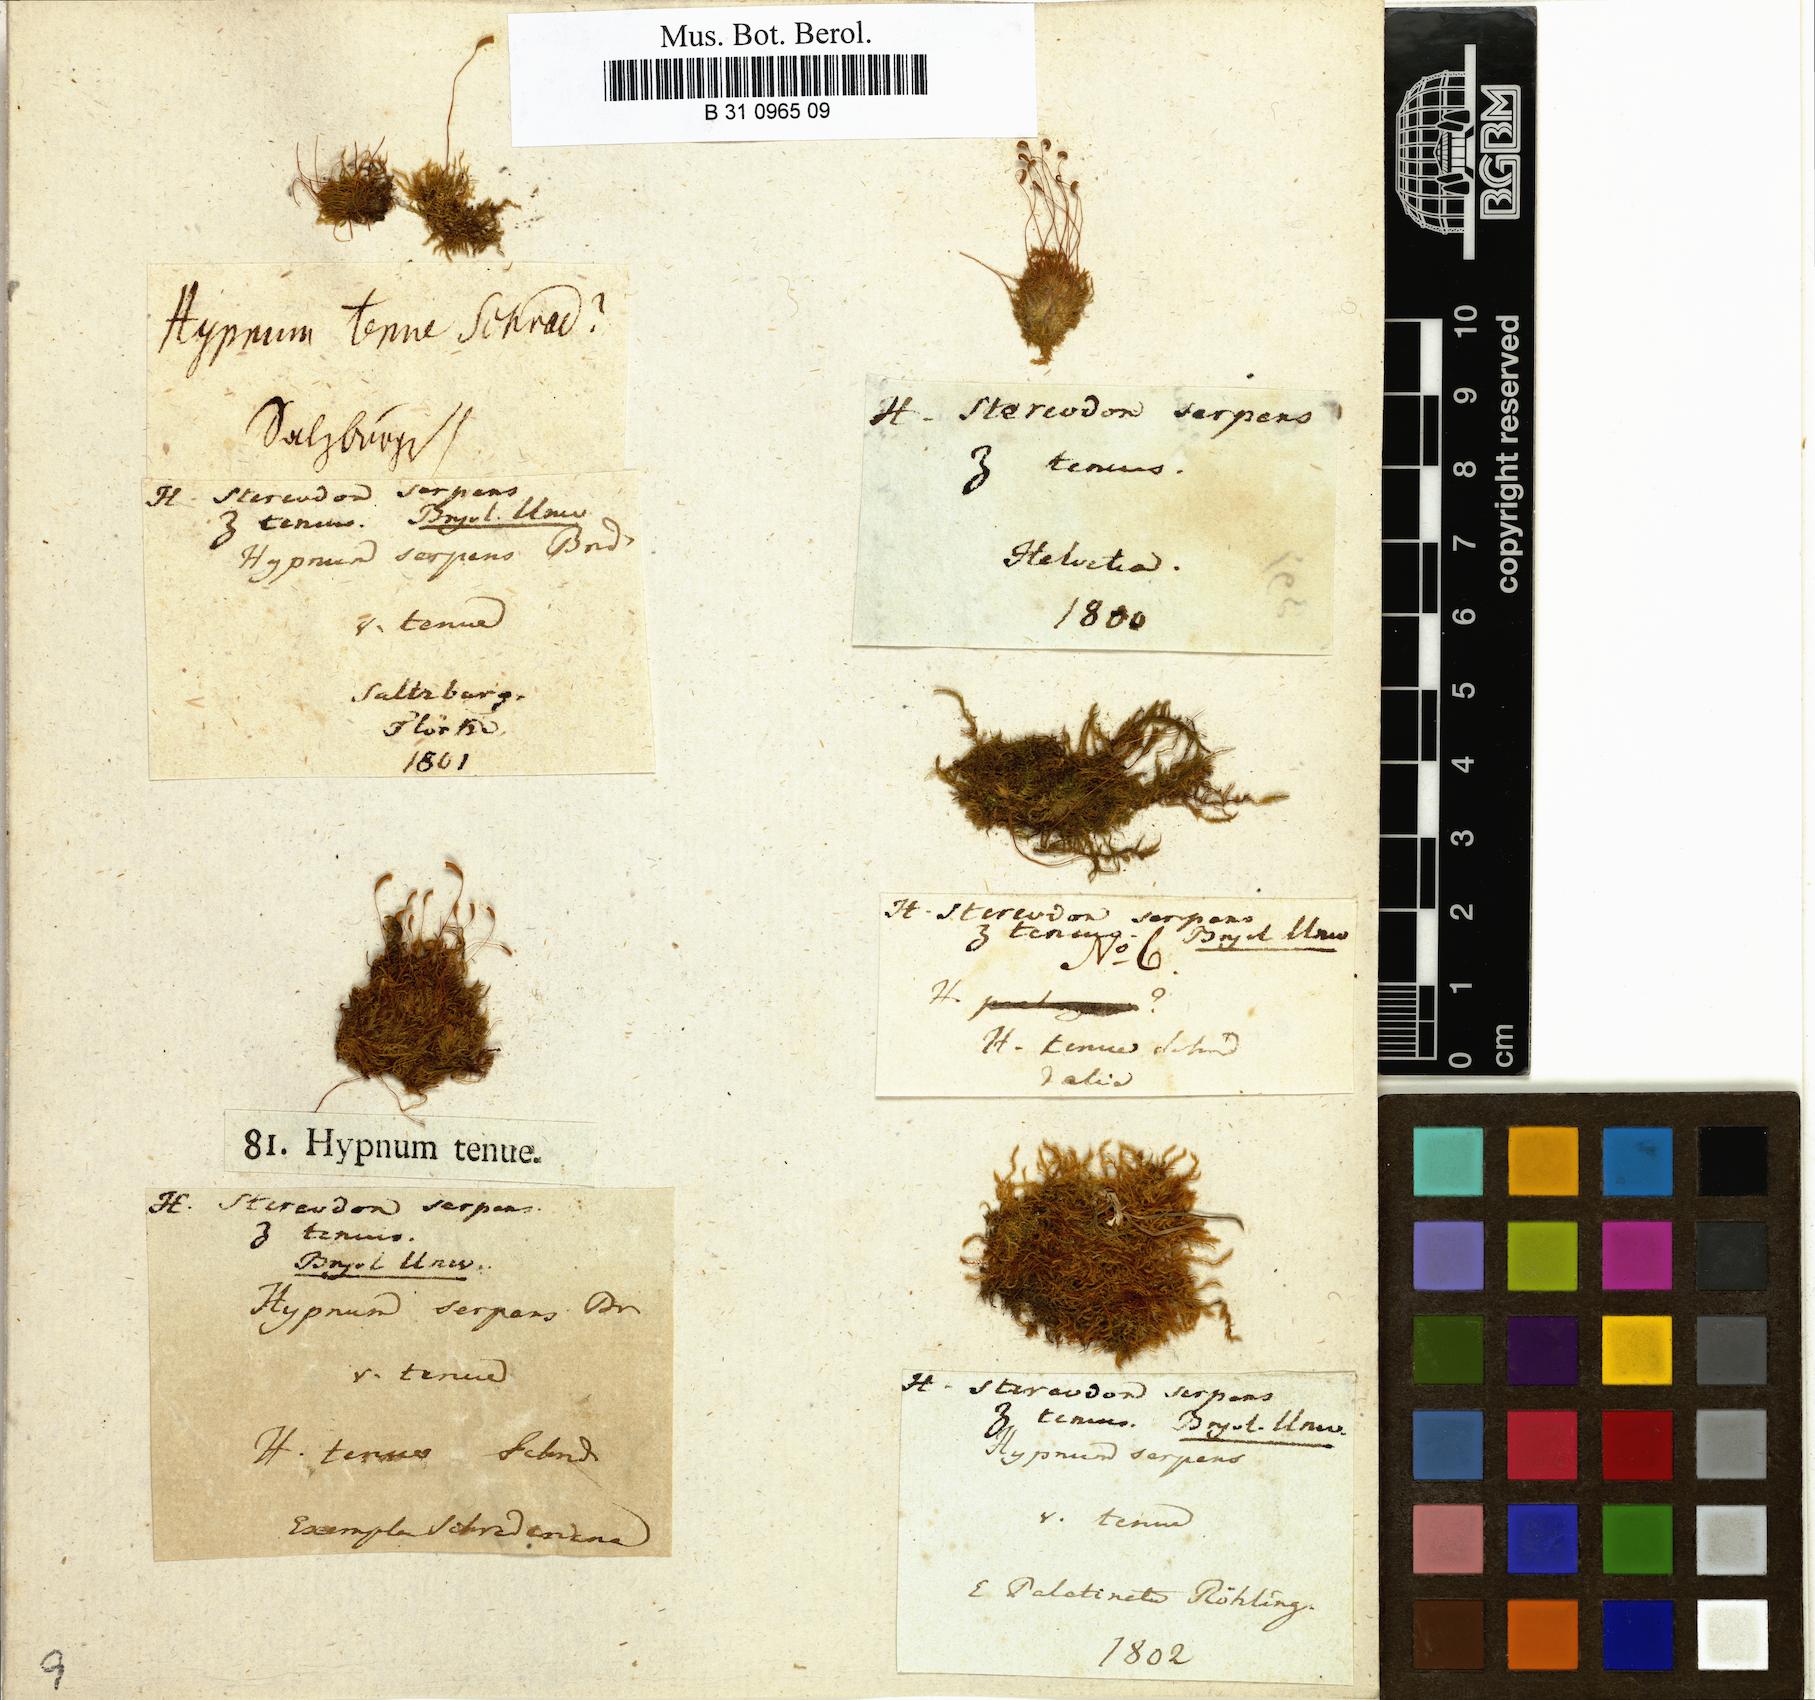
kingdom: Plantae
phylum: Bryophyta
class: Bryopsida
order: Hypnales
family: Amblystegiaceae
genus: Amblystegium
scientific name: Amblystegium serpens
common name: Jurkatzka's feather moss
